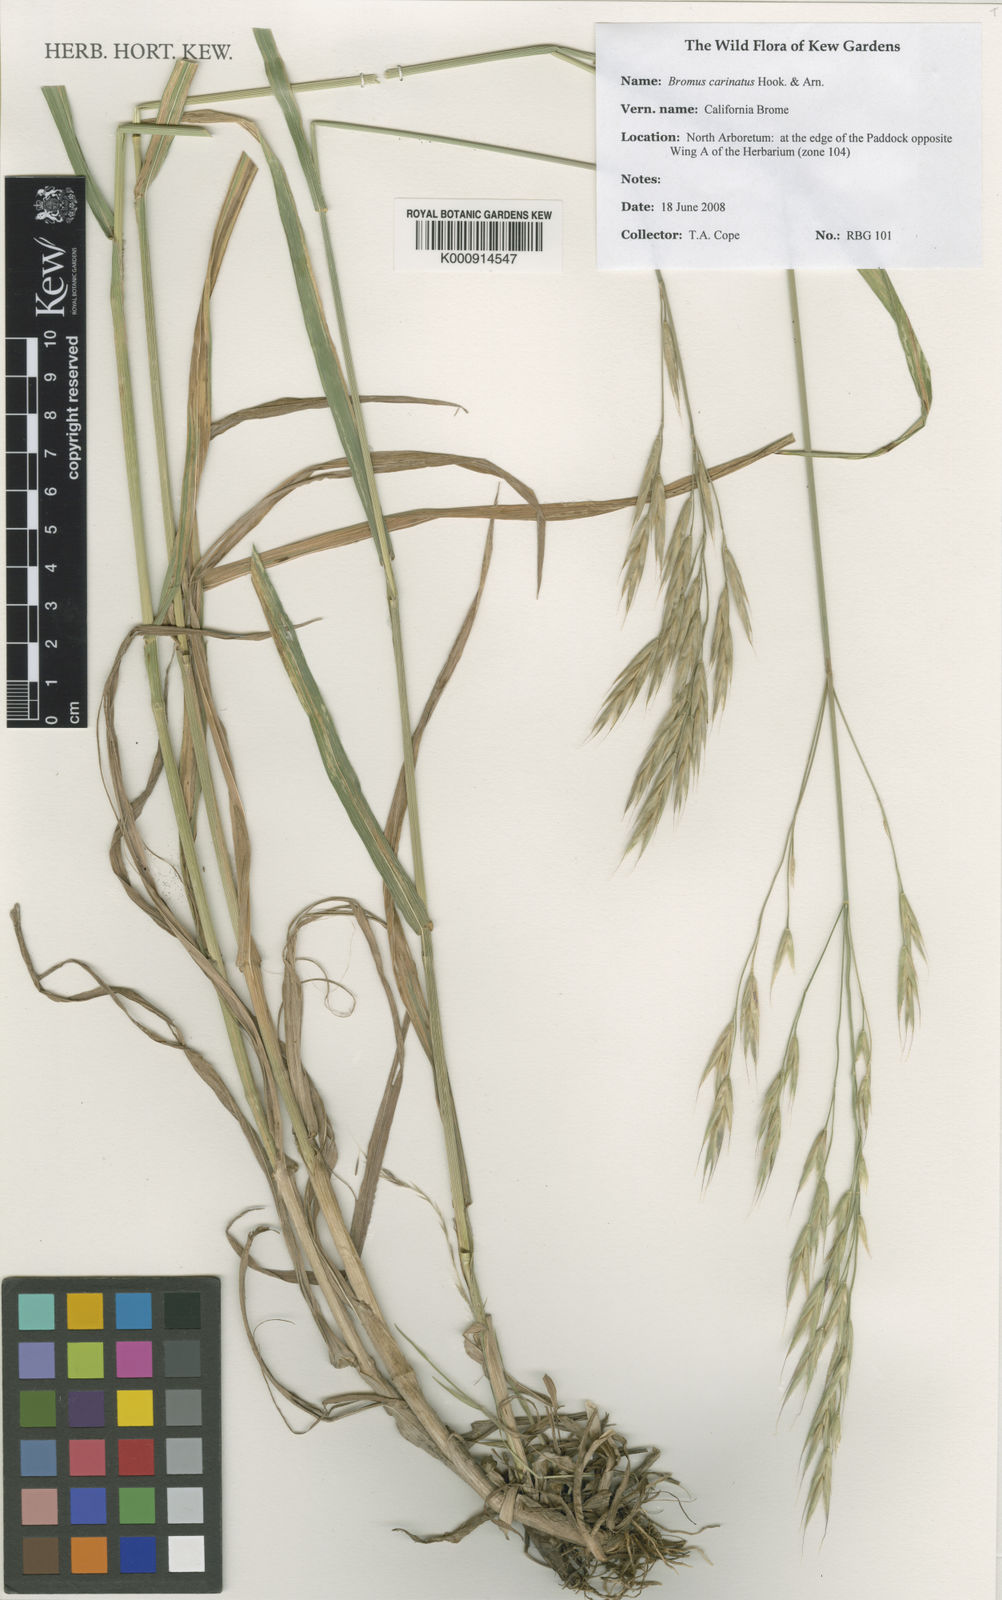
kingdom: Plantae
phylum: Tracheophyta
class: Liliopsida
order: Poales
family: Poaceae
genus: Bromus
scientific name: Bromus carinatus
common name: Mountain brome
